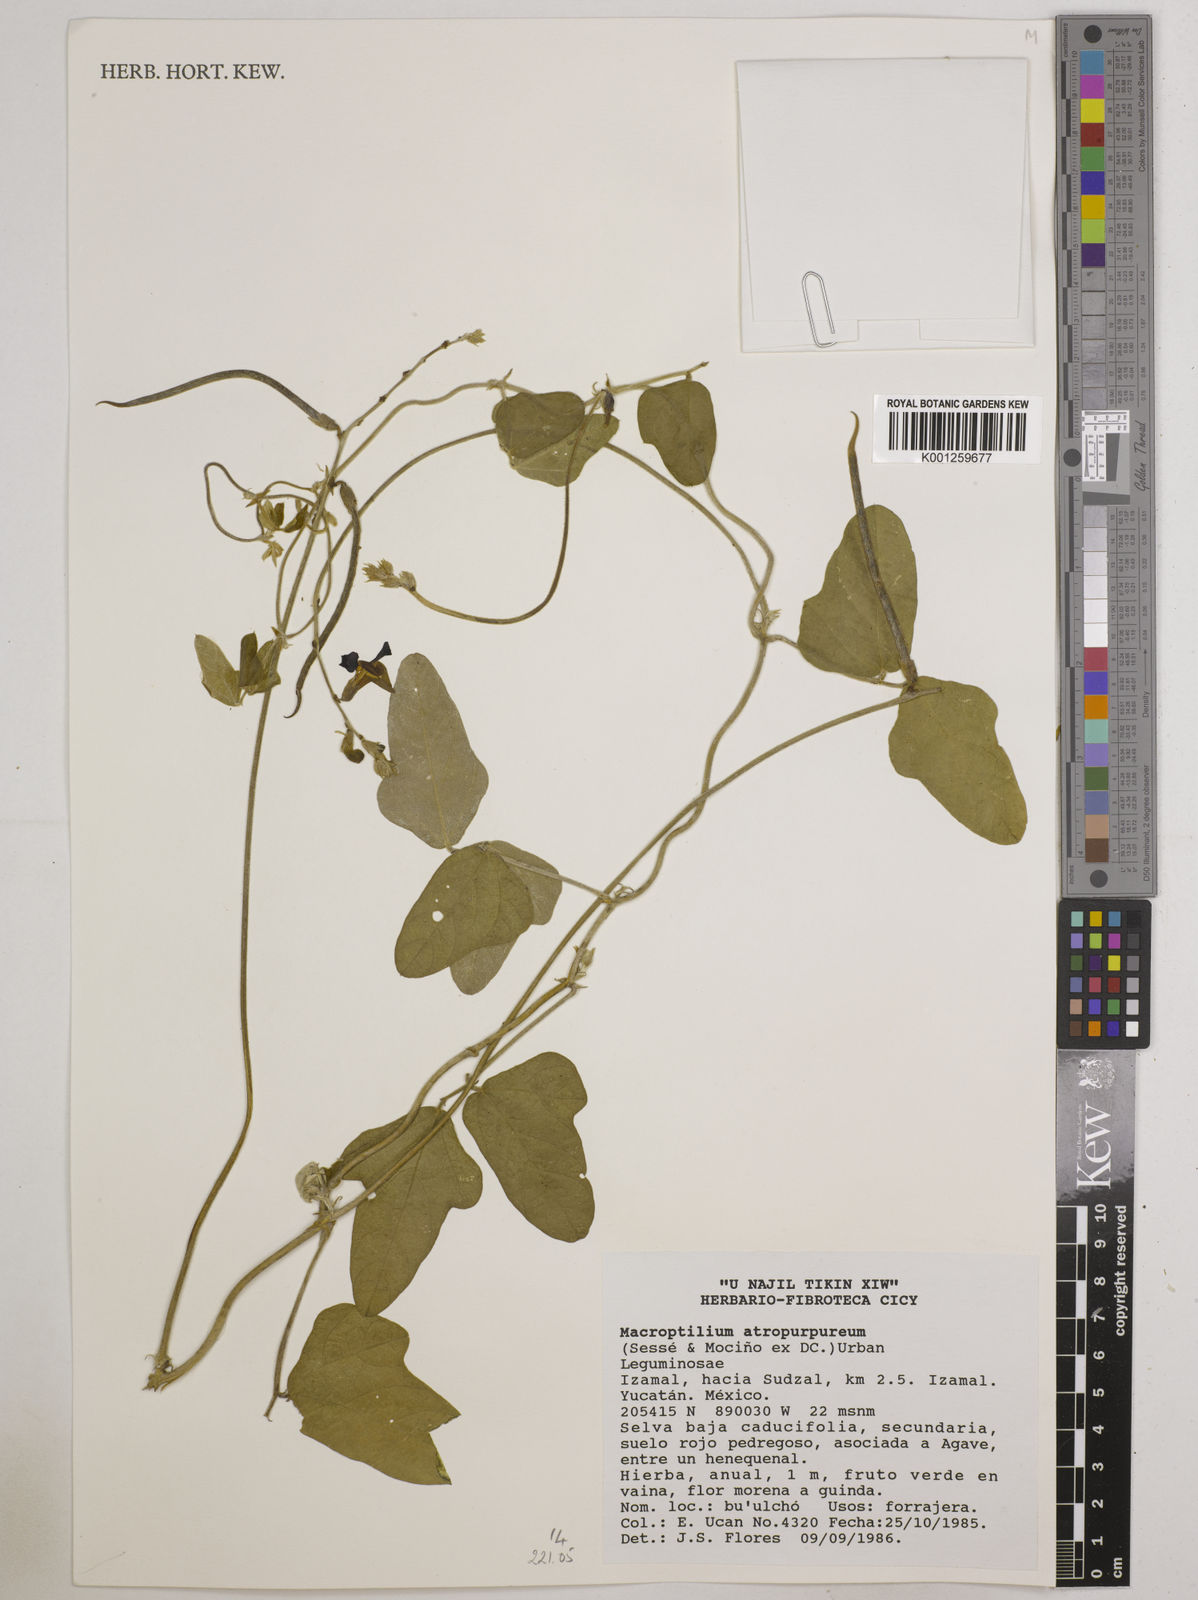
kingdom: Plantae
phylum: Tracheophyta
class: Magnoliopsida
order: Fabales
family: Fabaceae
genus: Macroptilium
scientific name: Macroptilium atropurpureum
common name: Purple bushbean
